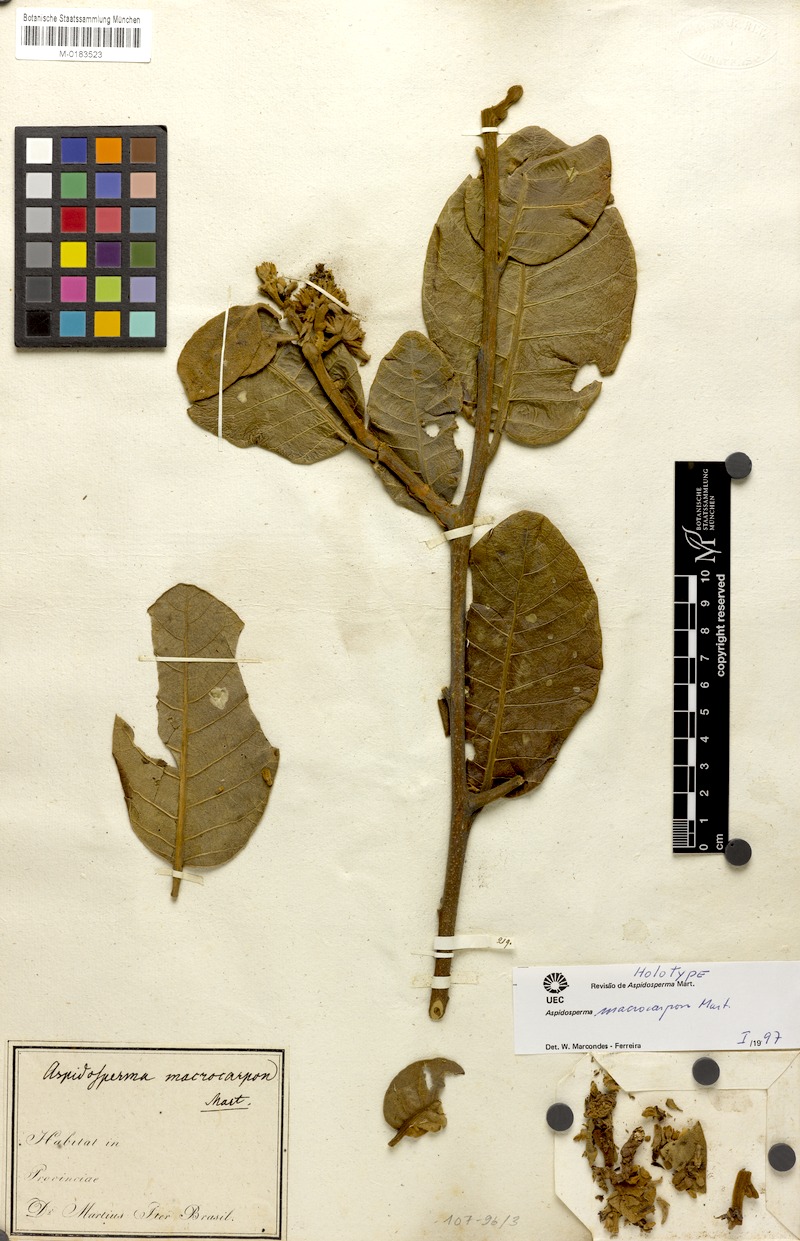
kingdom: Plantae
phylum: Tracheophyta
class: Magnoliopsida
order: Gentianales
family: Apocynaceae
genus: Aspidosperma
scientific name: Aspidosperma macrocarpon
